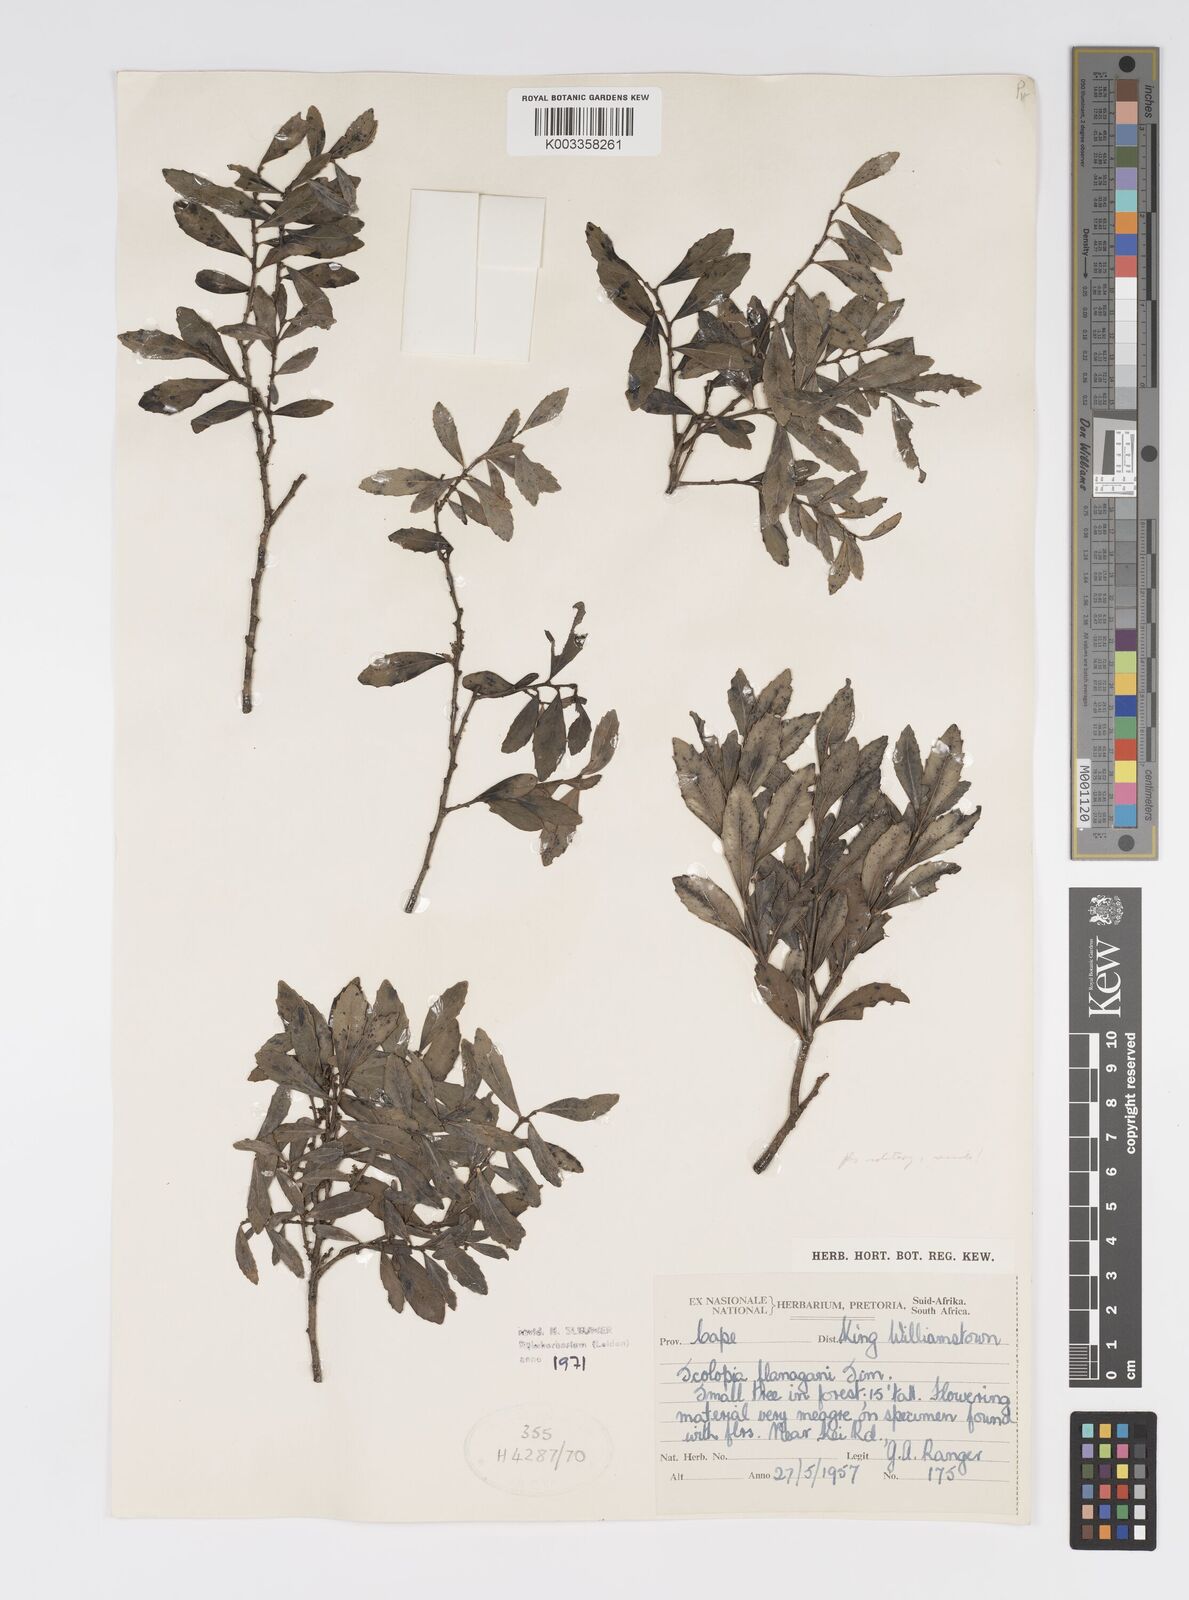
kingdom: Plantae
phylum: Tracheophyta
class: Magnoliopsida
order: Malpighiales
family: Salicaceae
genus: Scolopia
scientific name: Scolopia flanaganii
